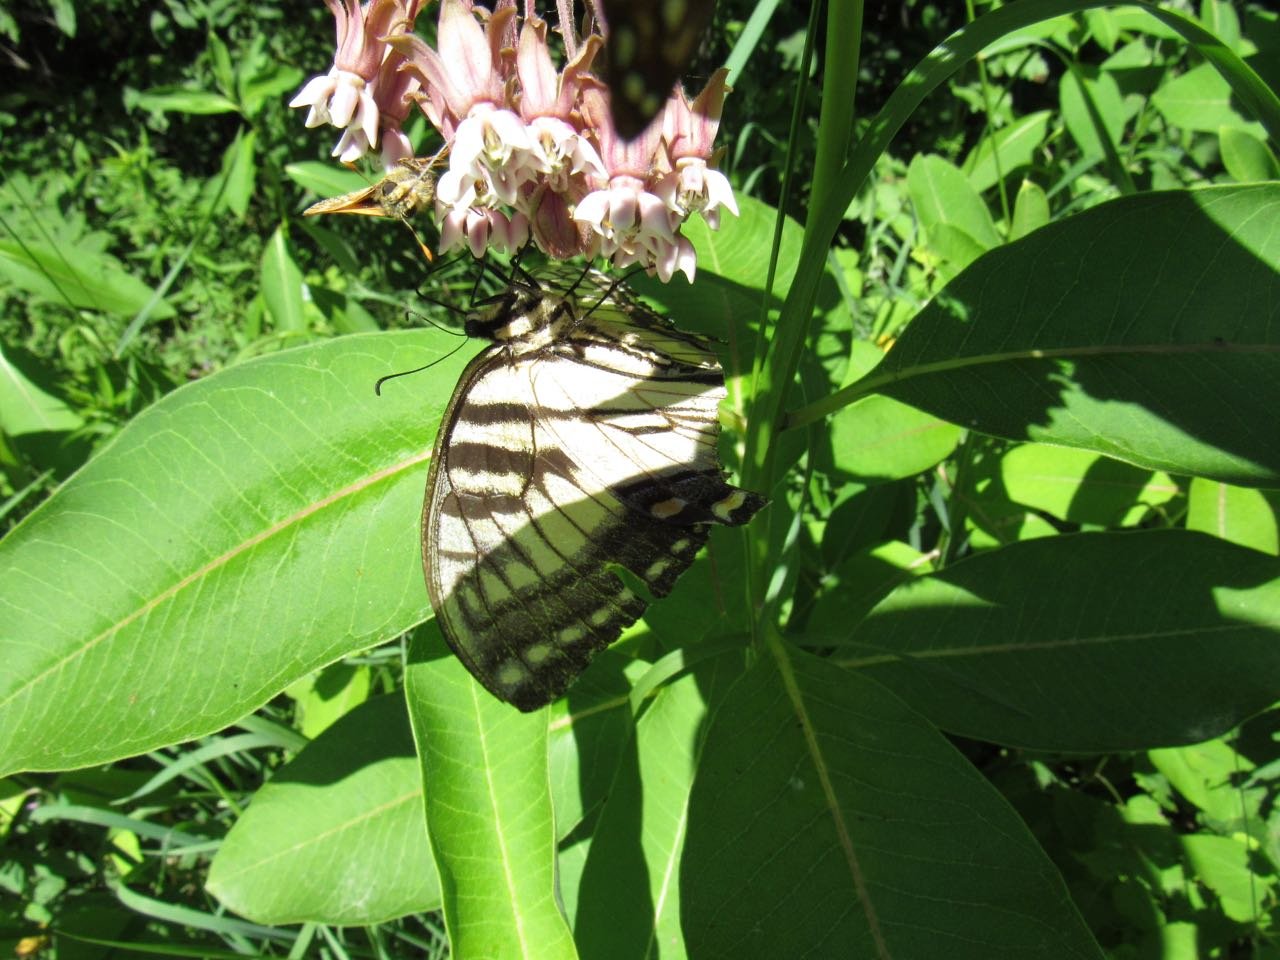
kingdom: Animalia
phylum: Arthropoda
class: Insecta
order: Lepidoptera
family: Papilionidae
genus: Pterourus
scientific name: Pterourus
